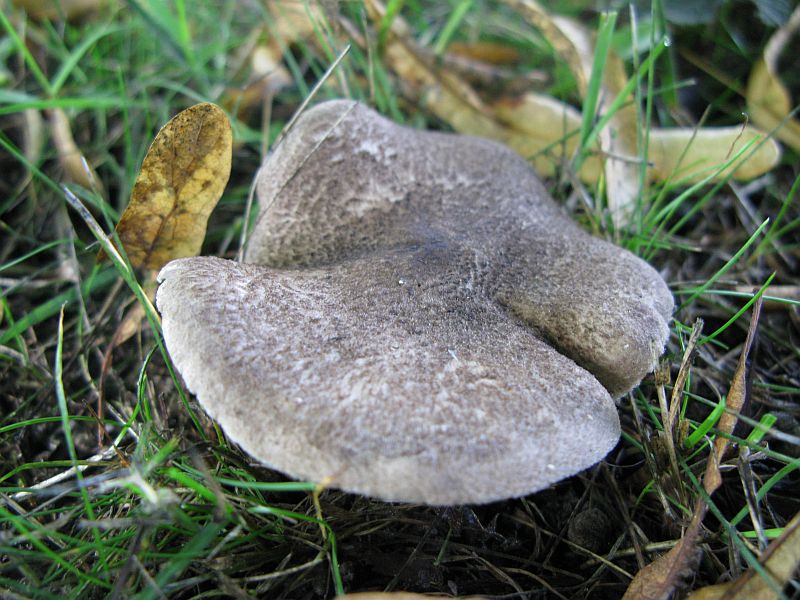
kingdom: Fungi
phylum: Basidiomycota
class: Agaricomycetes
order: Agaricales
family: Tricholomataceae
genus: Tricholoma
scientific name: Tricholoma scalpturatum
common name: gulplettet ridderhat
